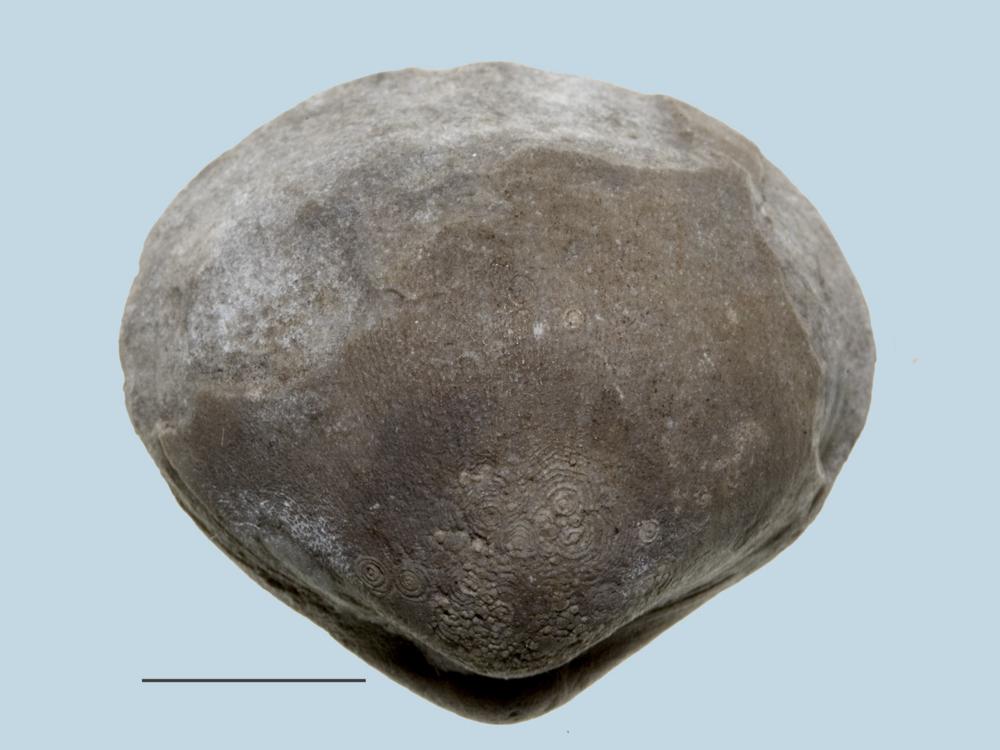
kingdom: Animalia
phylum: Brachiopoda
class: Rhynchonellata
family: Porambonitidae
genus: Porambonites
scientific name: Porambonites
